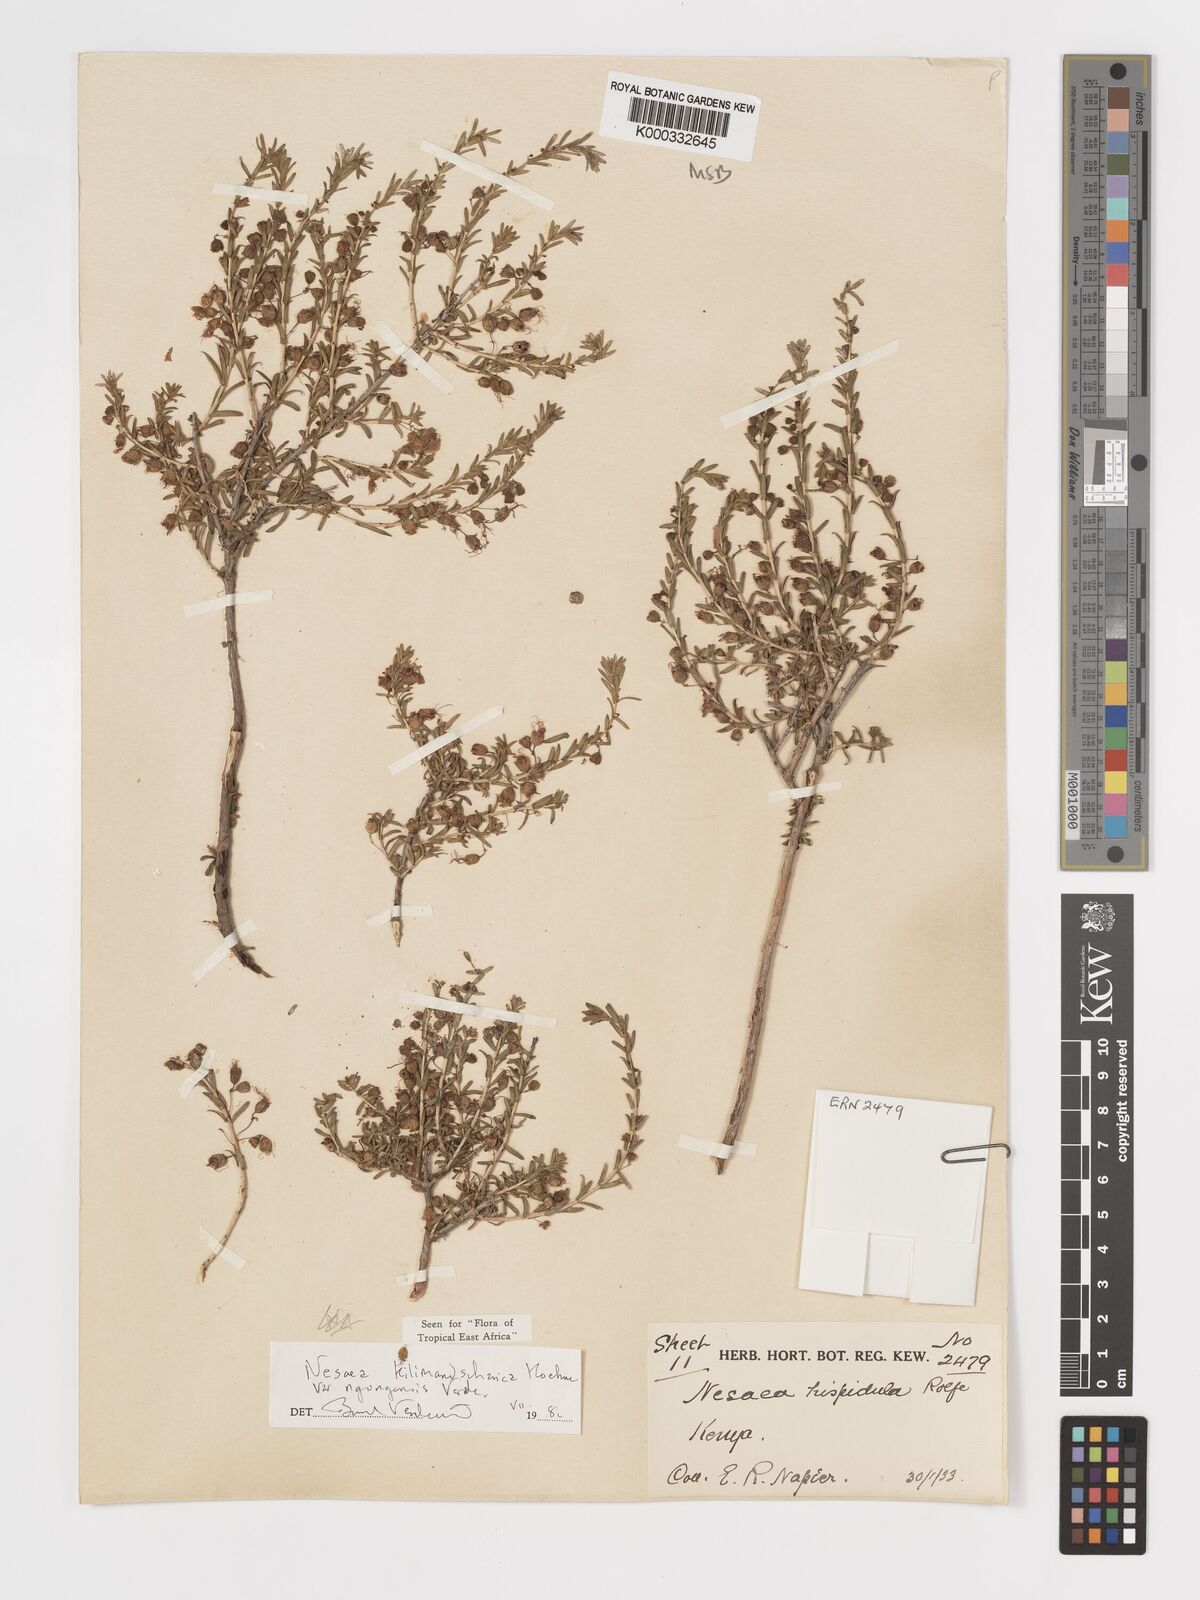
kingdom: Plantae
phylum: Tracheophyta
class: Magnoliopsida
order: Myrtales
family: Lythraceae
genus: Ammannia
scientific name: Ammannia kilimandscharica
